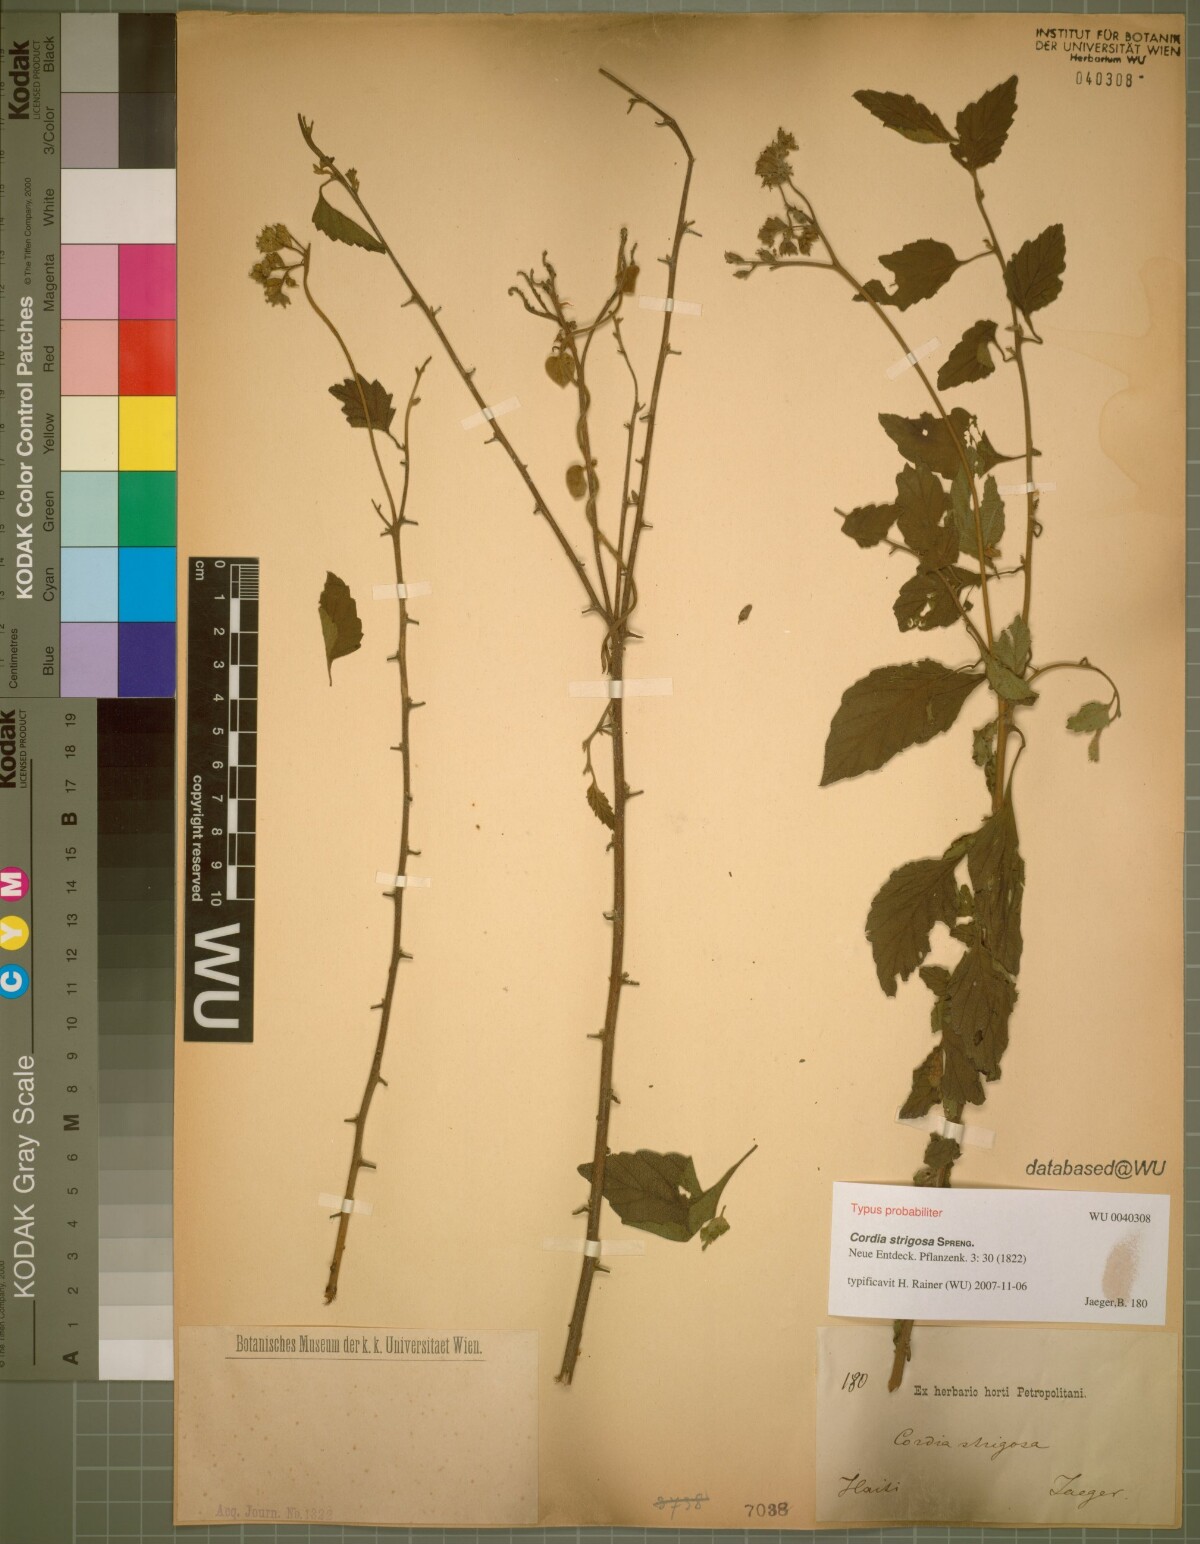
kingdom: Plantae
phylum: Tracheophyta
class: Magnoliopsida
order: Boraginales
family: Cordiaceae
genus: Varronia
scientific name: Varronia serrata
